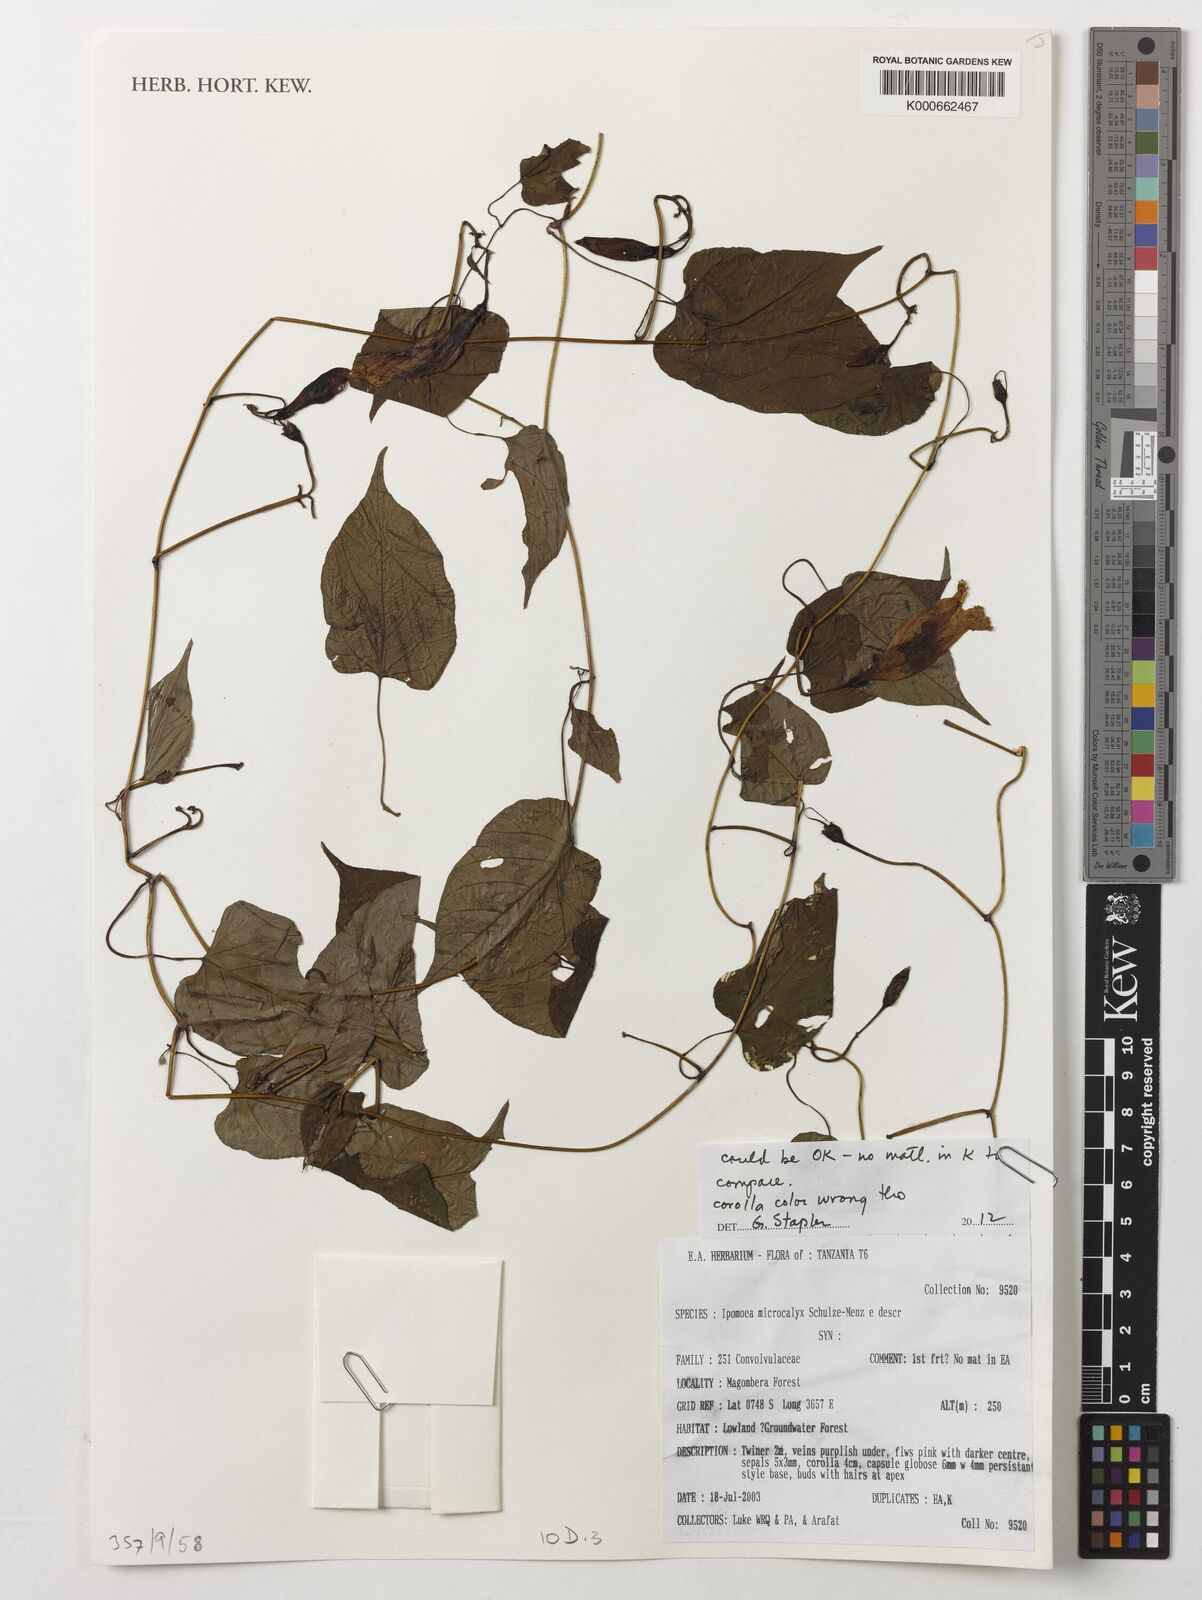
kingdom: Plantae
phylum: Tracheophyta
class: Magnoliopsida
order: Solanales
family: Convolvulaceae
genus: Ipomoea
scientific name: Ipomoea microcalyx
